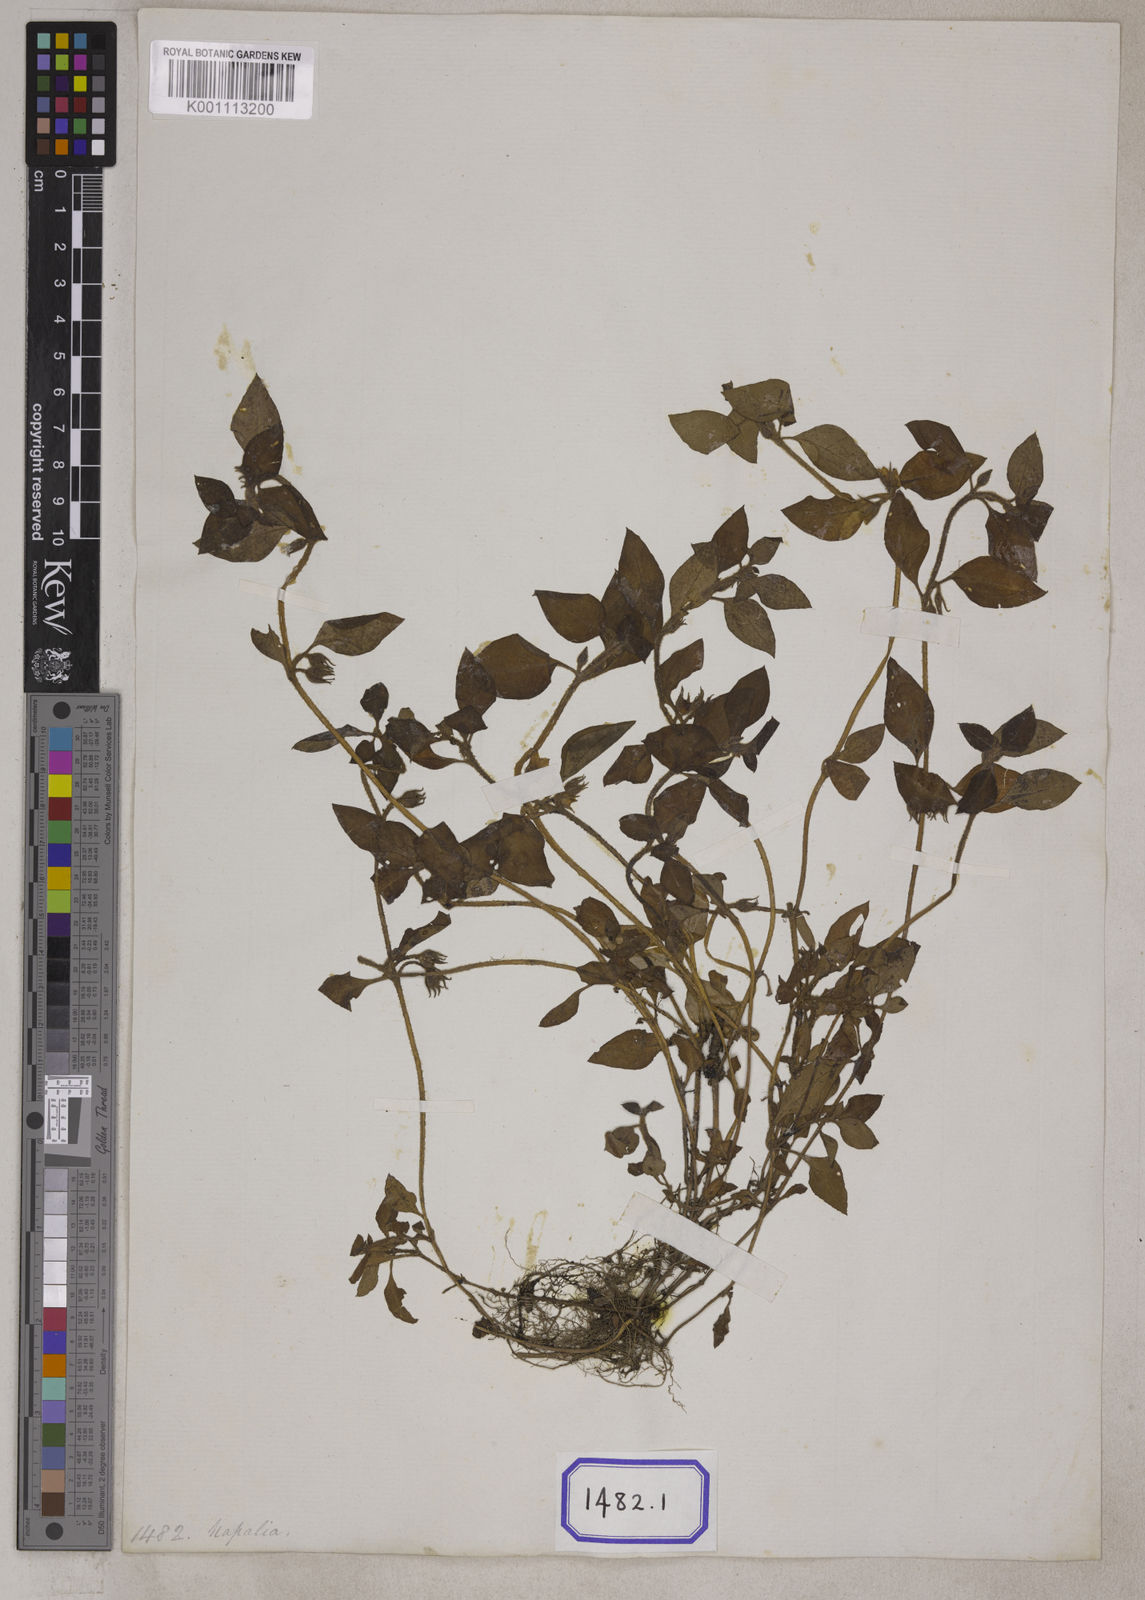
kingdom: Plantae
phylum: Tracheophyta
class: Magnoliopsida
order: Ericales
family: Primulaceae
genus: Lysimachia
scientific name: Lysimachia japonica
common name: Japanese yellow loosestrife
